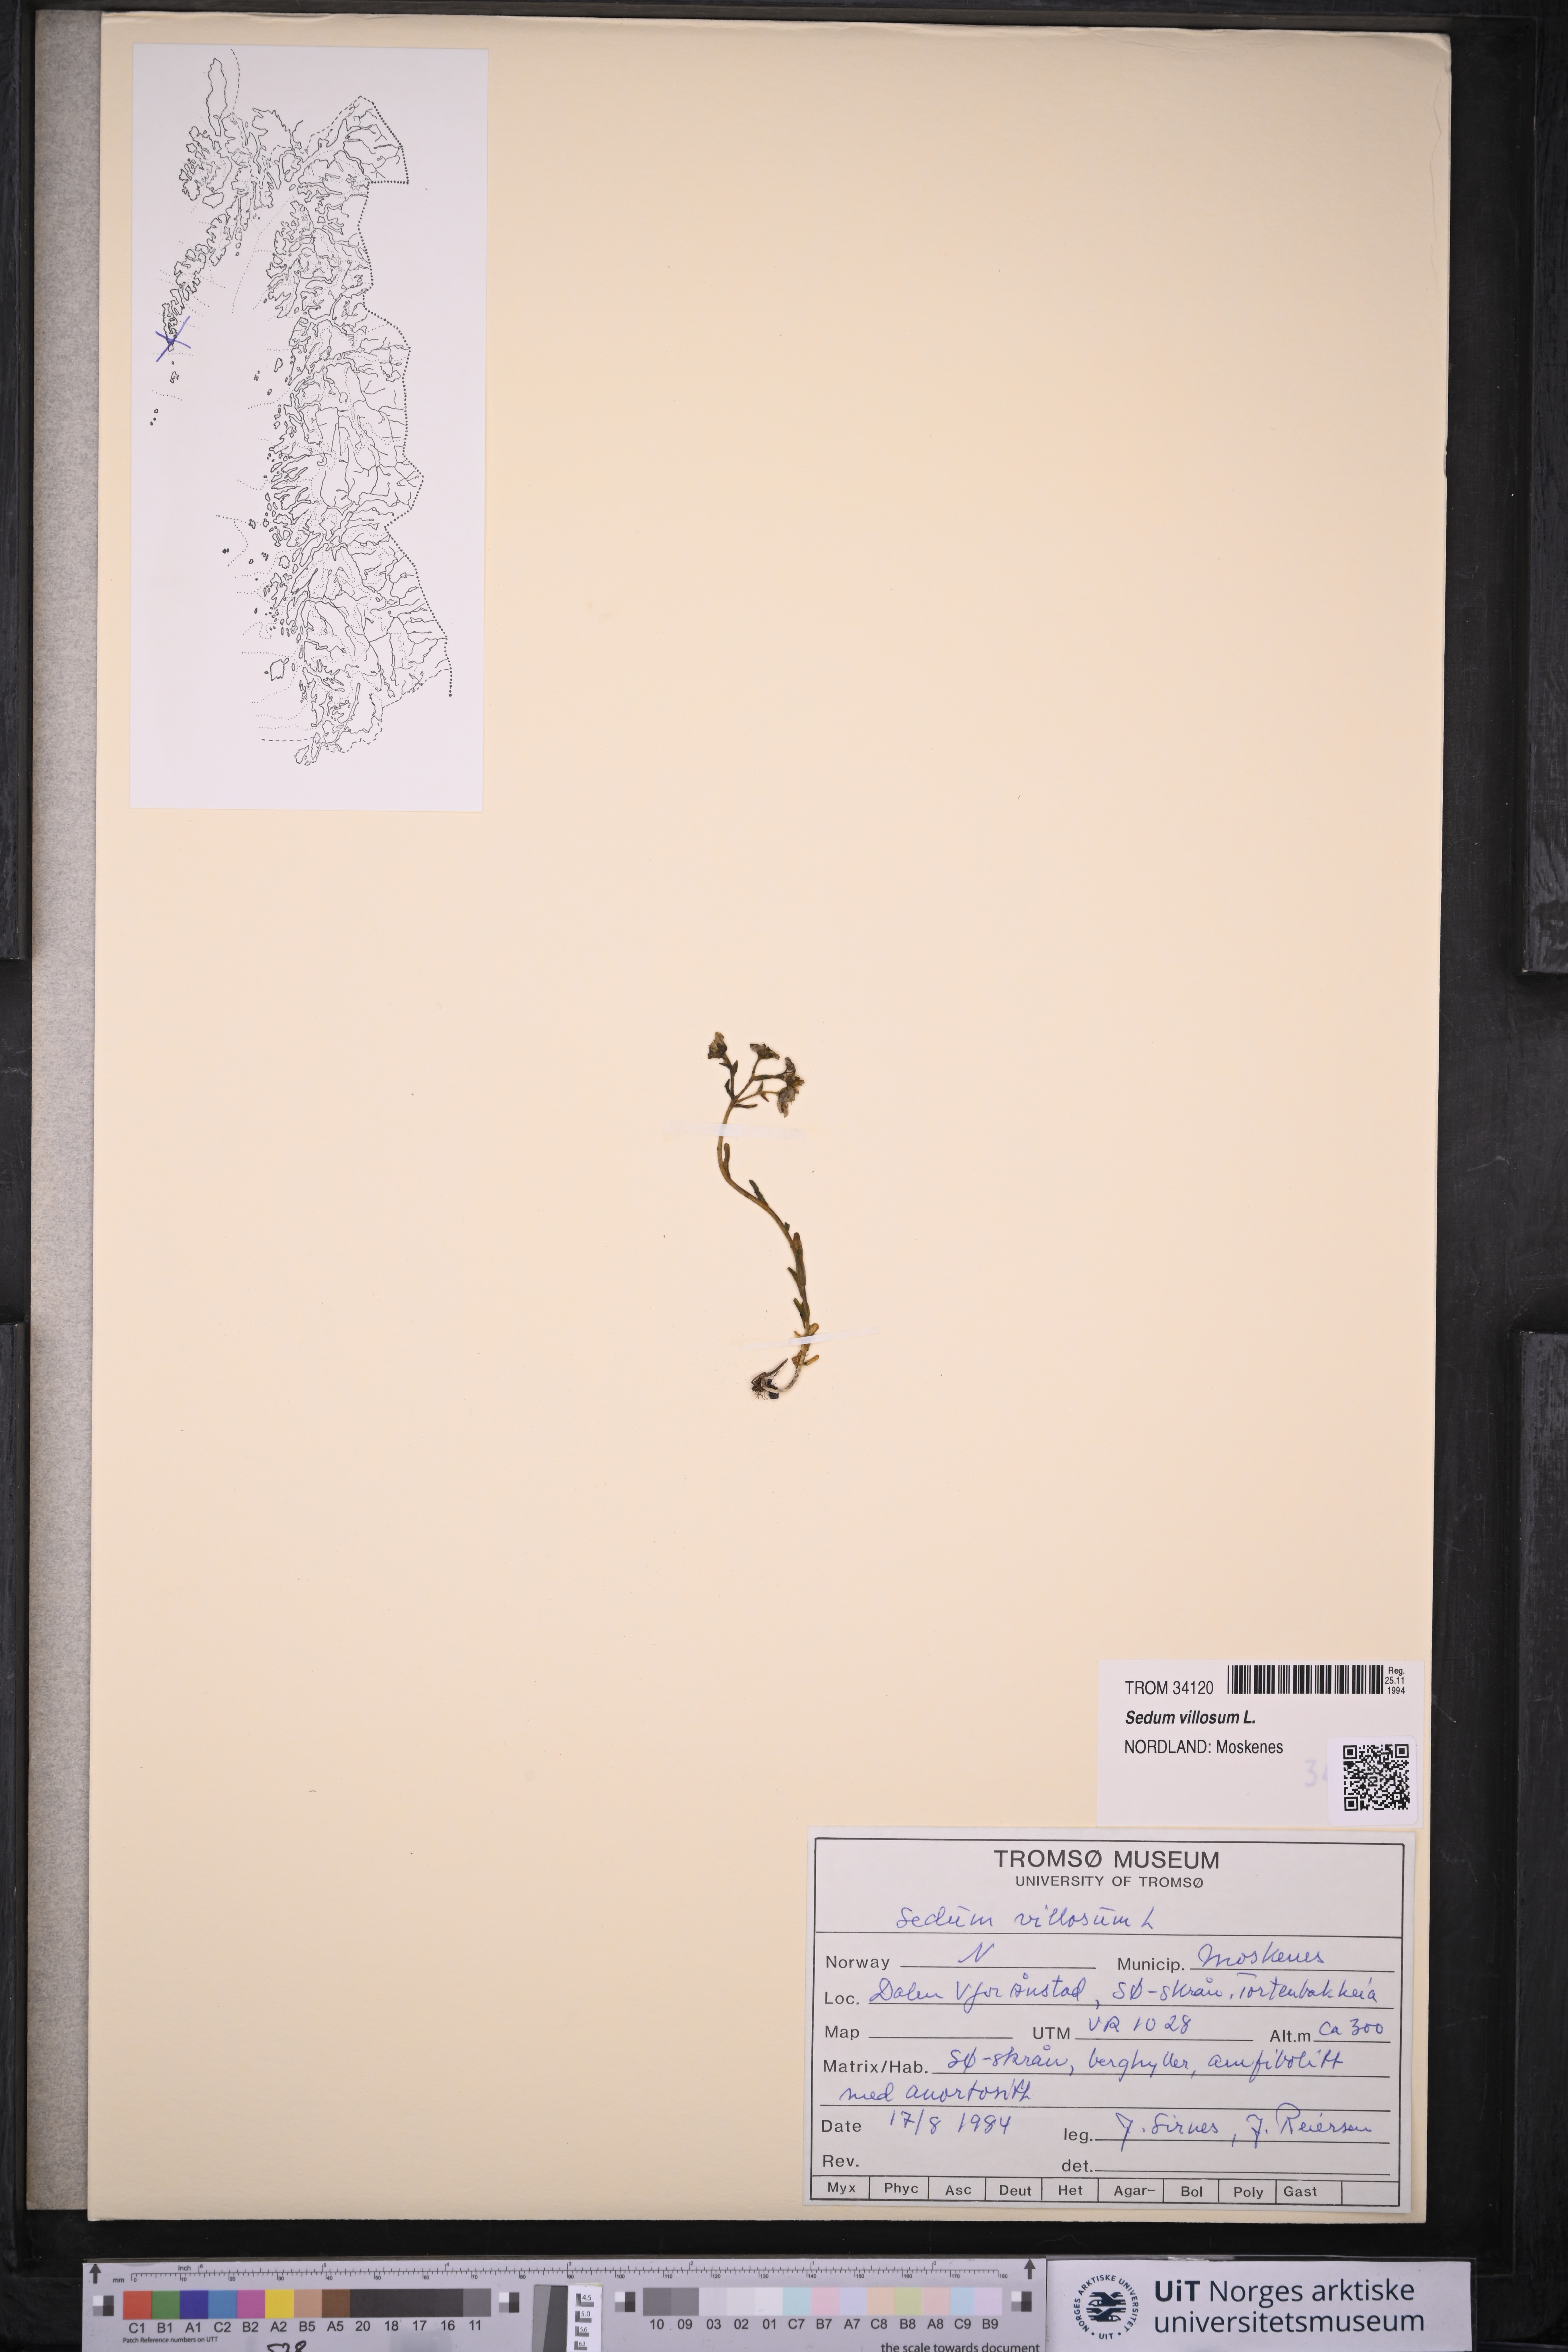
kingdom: Plantae
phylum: Tracheophyta
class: Magnoliopsida
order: Saxifragales
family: Crassulaceae
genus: Sedum
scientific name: Sedum villosum
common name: Hairy stonecrop
